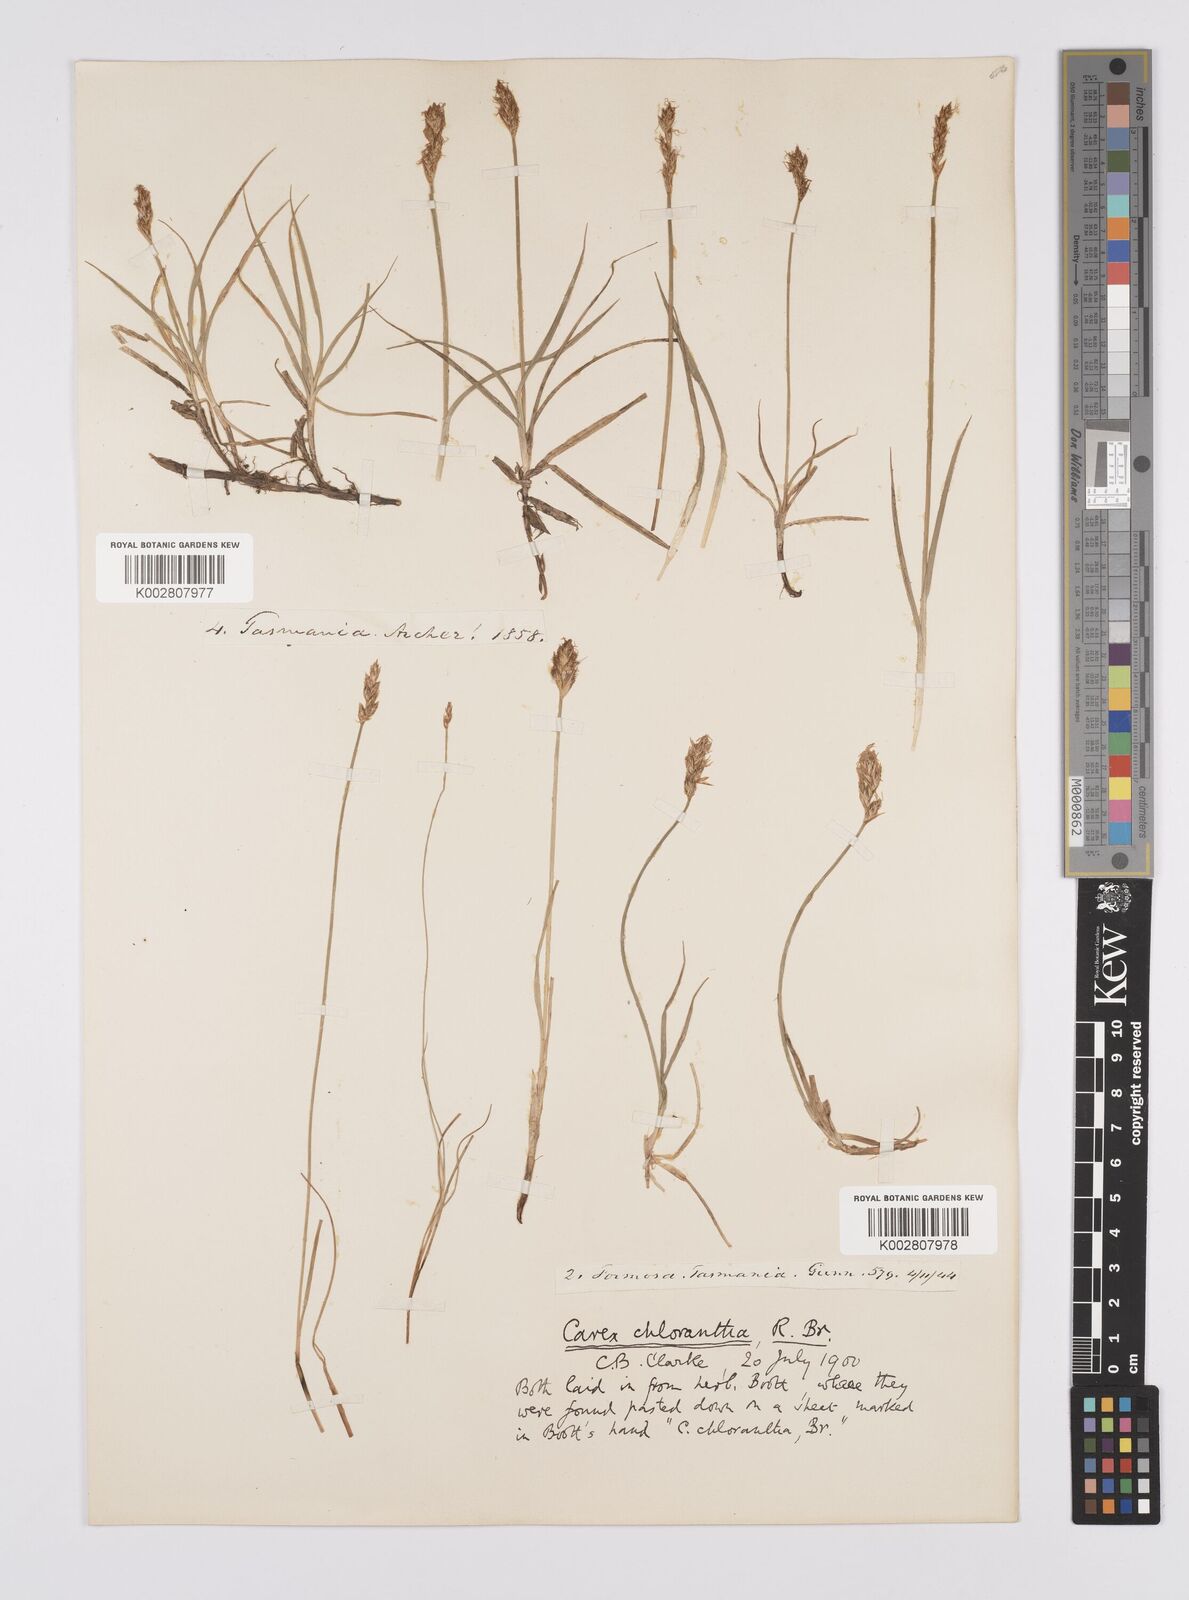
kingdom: Plantae
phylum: Tracheophyta
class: Liliopsida
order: Poales
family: Cyperaceae
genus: Carex
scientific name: Carex chlorantha
